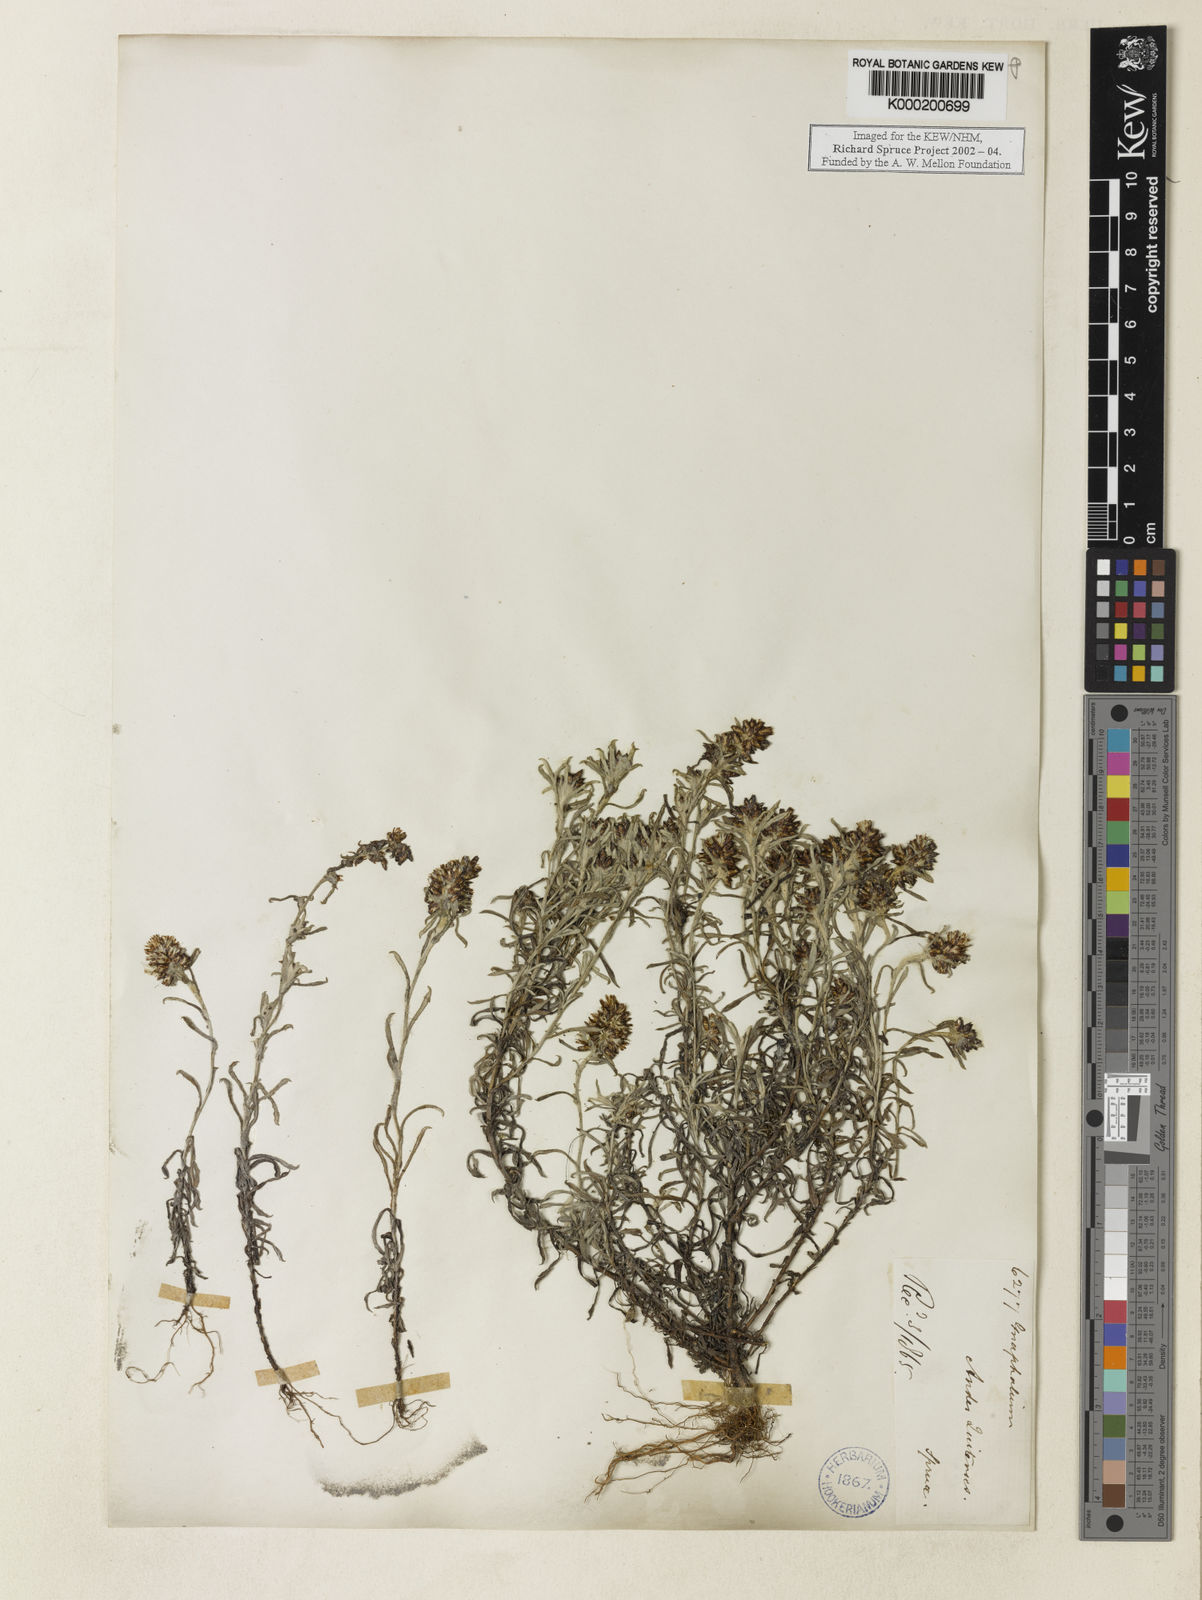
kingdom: Plantae
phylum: Tracheophyta
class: Magnoliopsida
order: Asterales
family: Asteraceae
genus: Gnaphalium
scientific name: Gnaphalium
